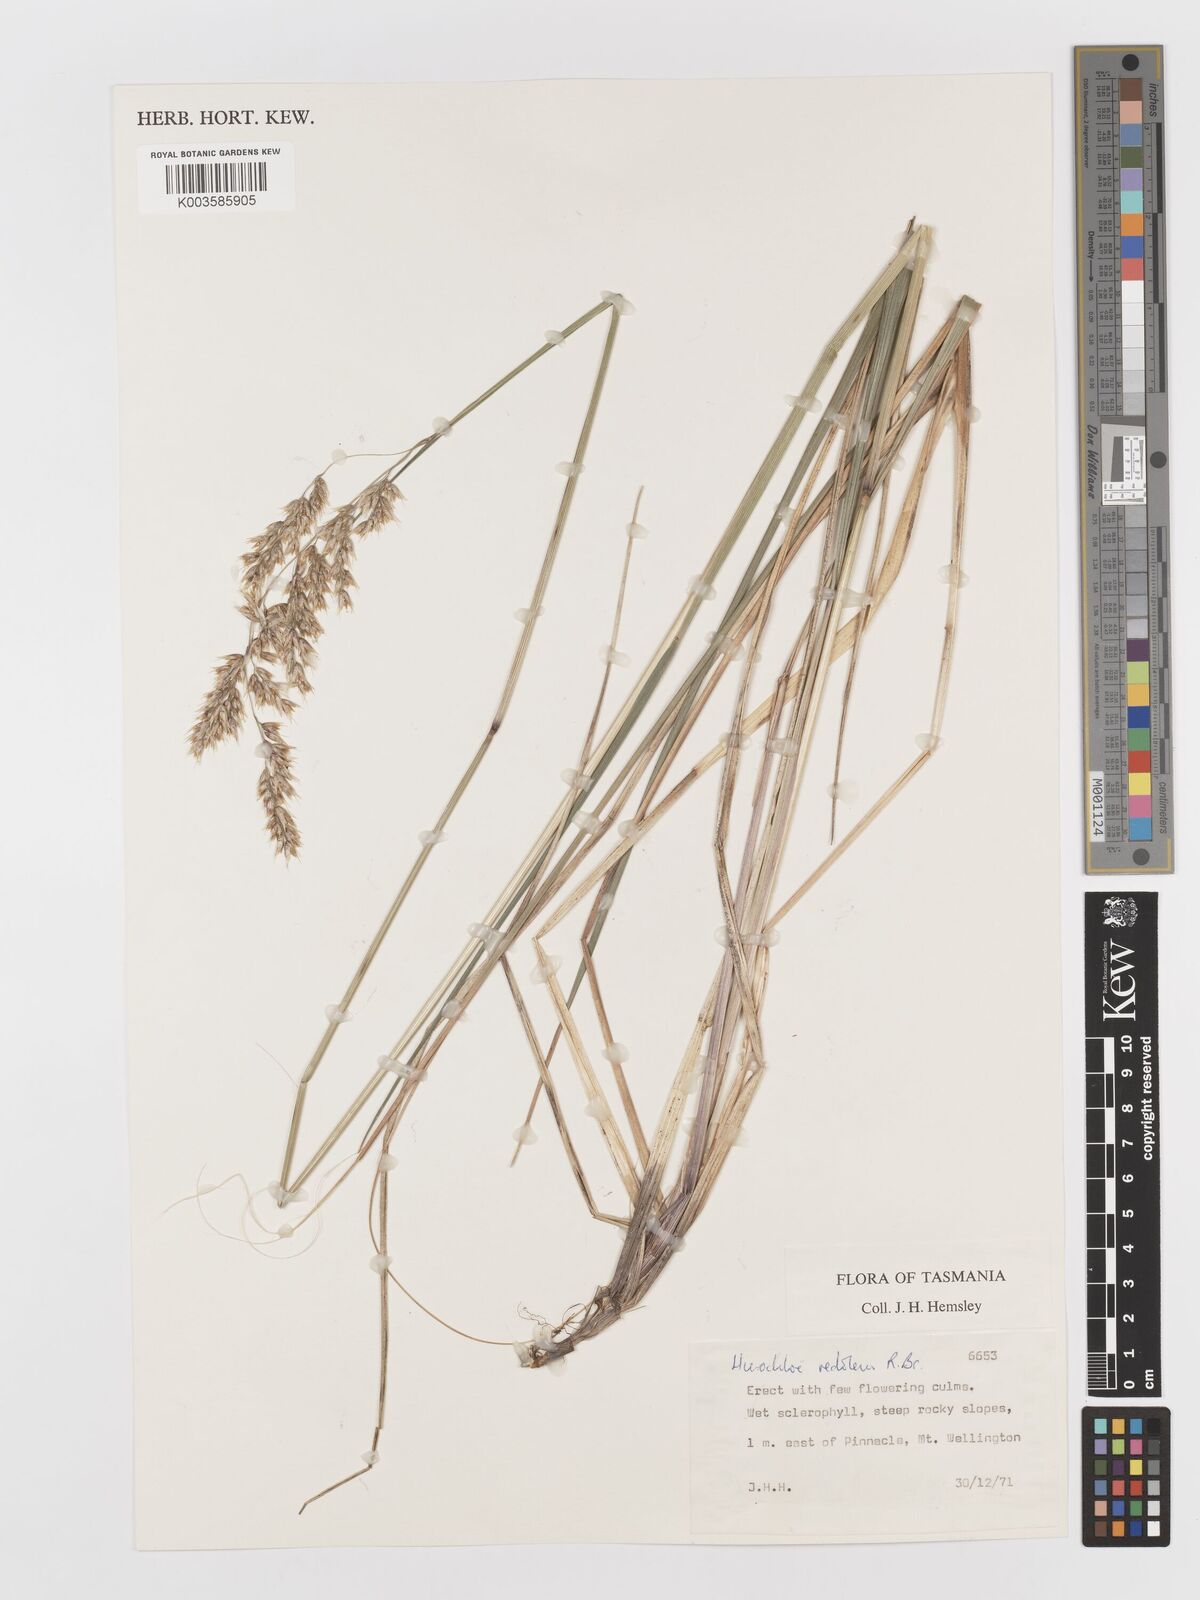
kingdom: Plantae
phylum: Tracheophyta
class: Liliopsida
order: Poales
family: Poaceae
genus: Anthoxanthum
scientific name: Anthoxanthum redolens
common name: Sweet holy grass
